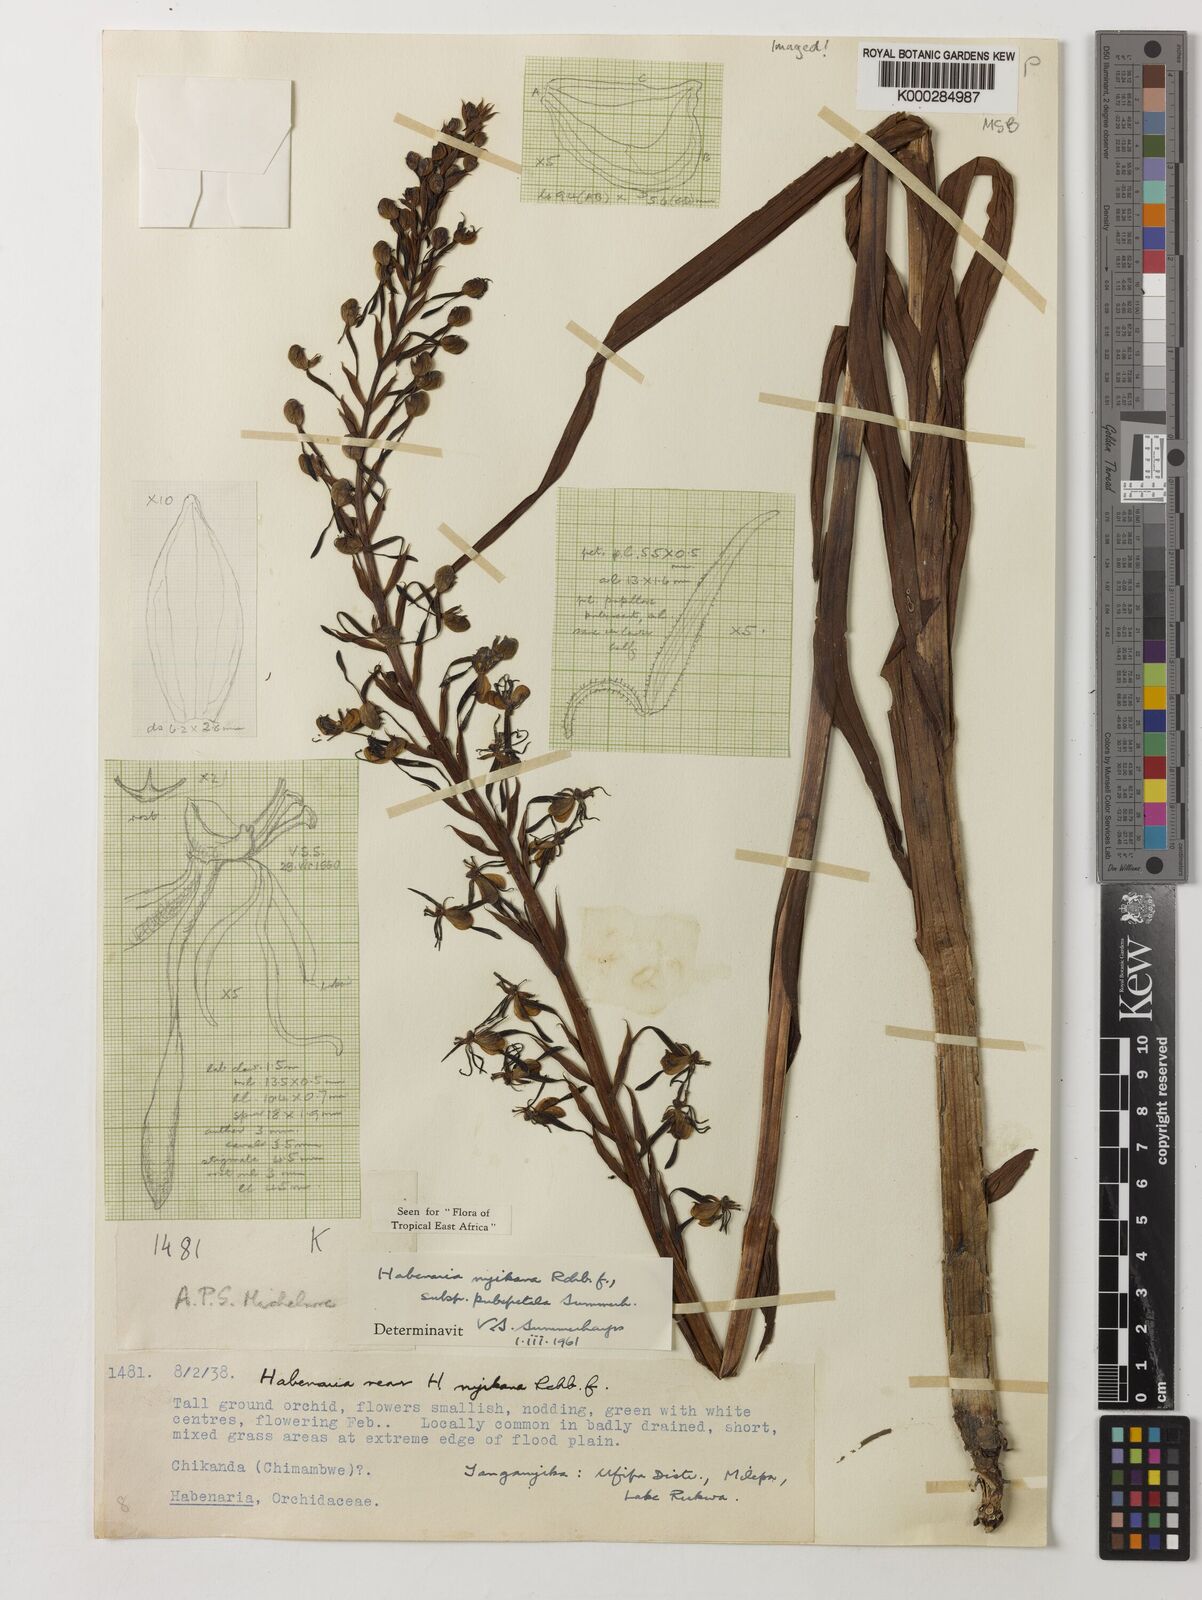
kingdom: Plantae
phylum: Tracheophyta
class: Liliopsida
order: Asparagales
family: Orchidaceae
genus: Habenaria
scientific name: Habenaria nyikana
